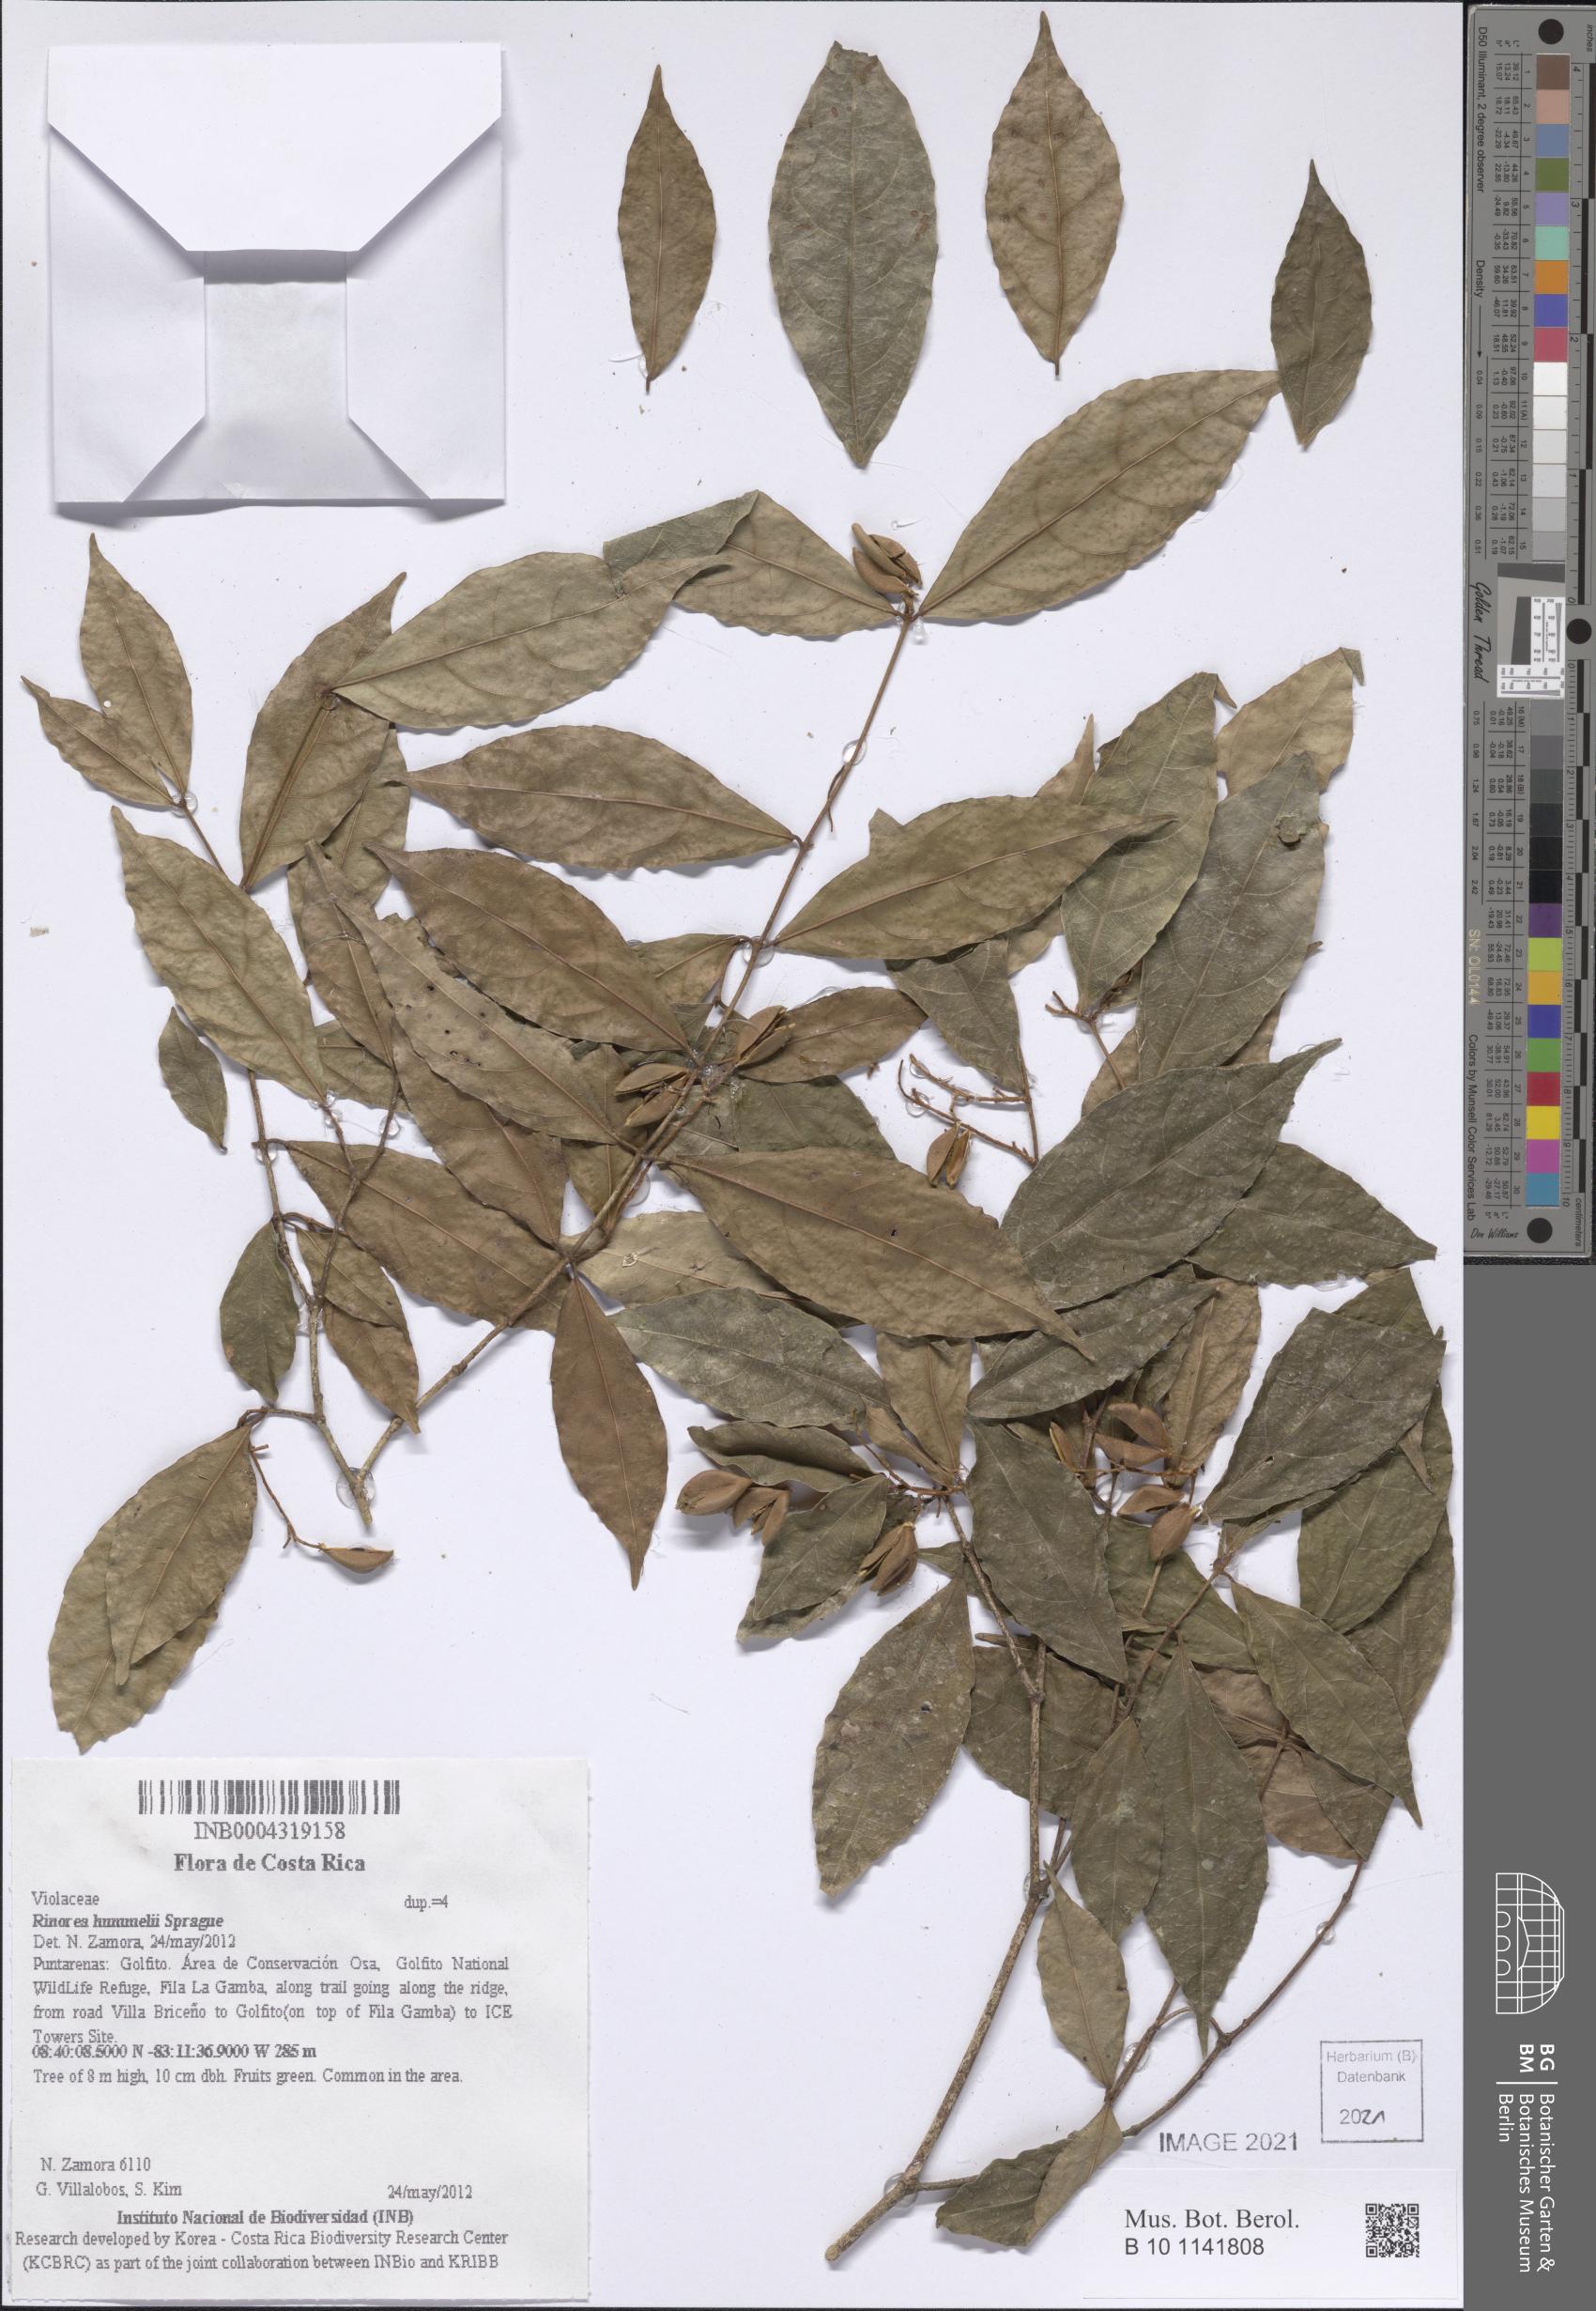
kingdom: Plantae
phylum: Tracheophyta
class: Magnoliopsida
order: Malpighiales
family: Violaceae
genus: Rinorea
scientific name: Rinorea hummelii
